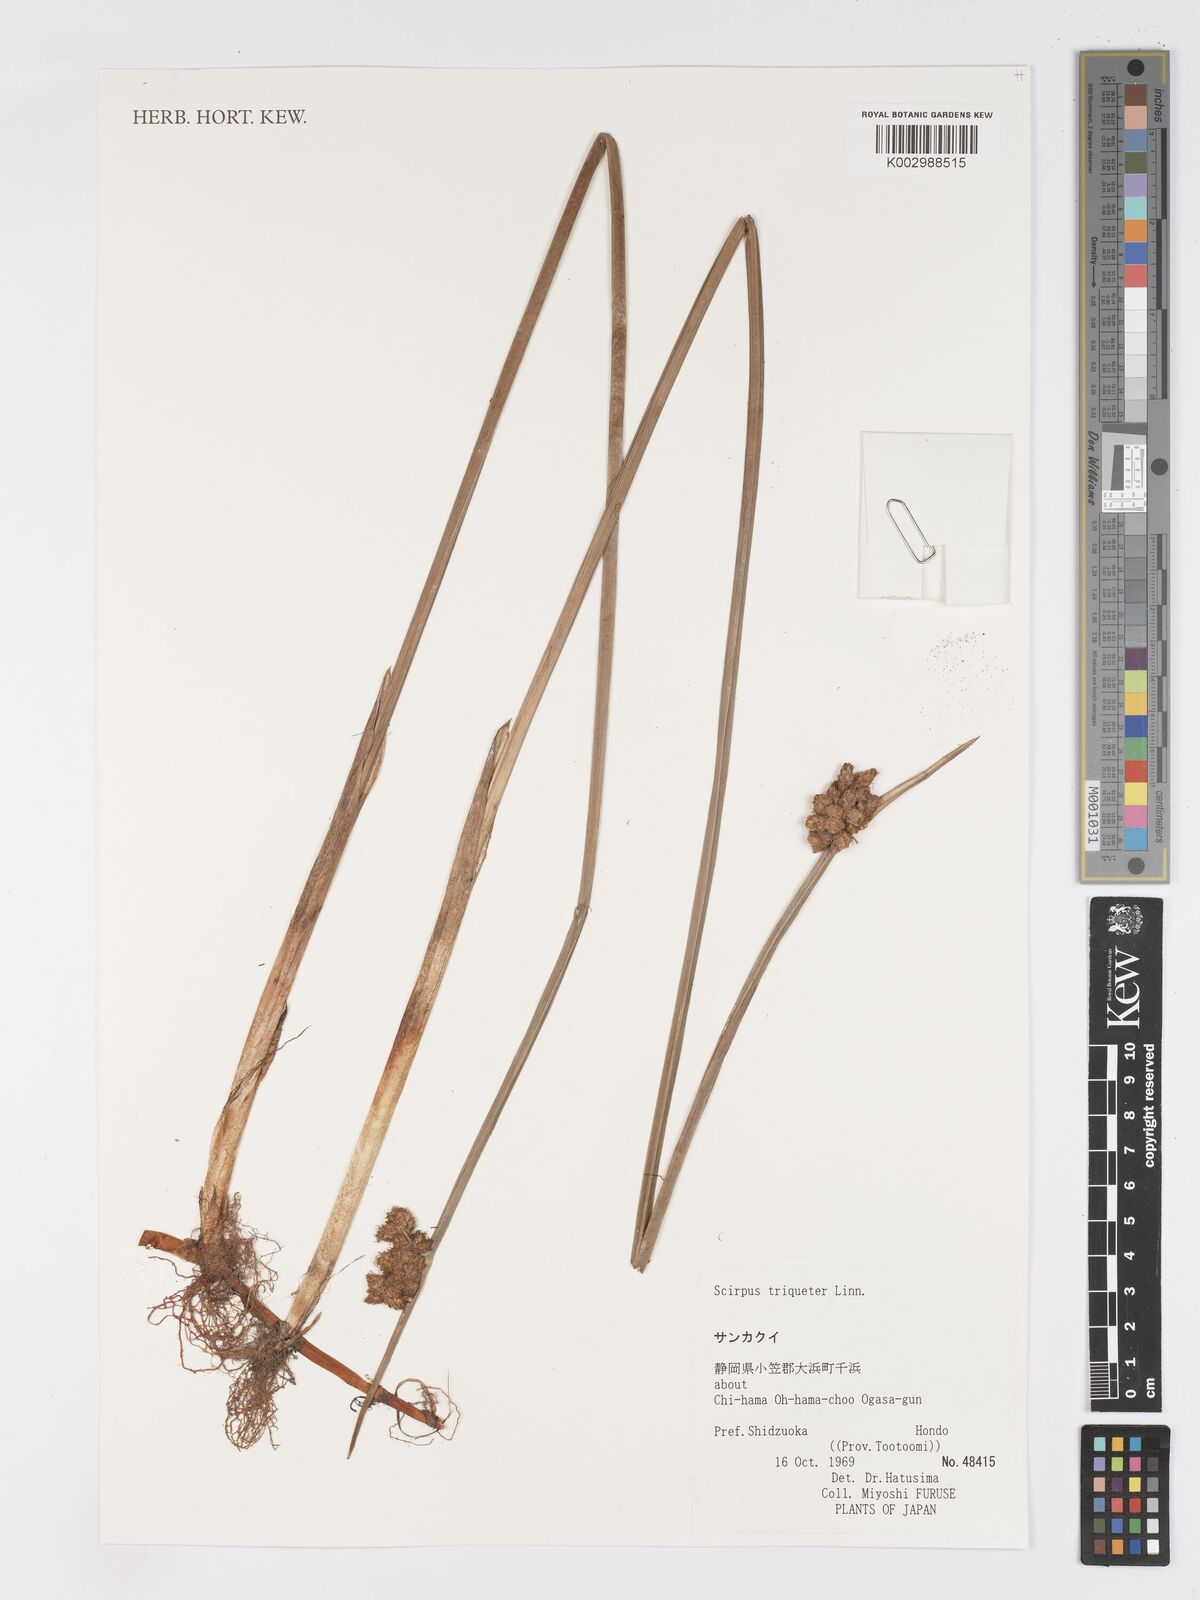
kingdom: Plantae
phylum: Tracheophyta
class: Liliopsida
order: Poales
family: Cyperaceae
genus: Schoenoplectus
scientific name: Schoenoplectus triqueter
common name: Triangular club-rush
